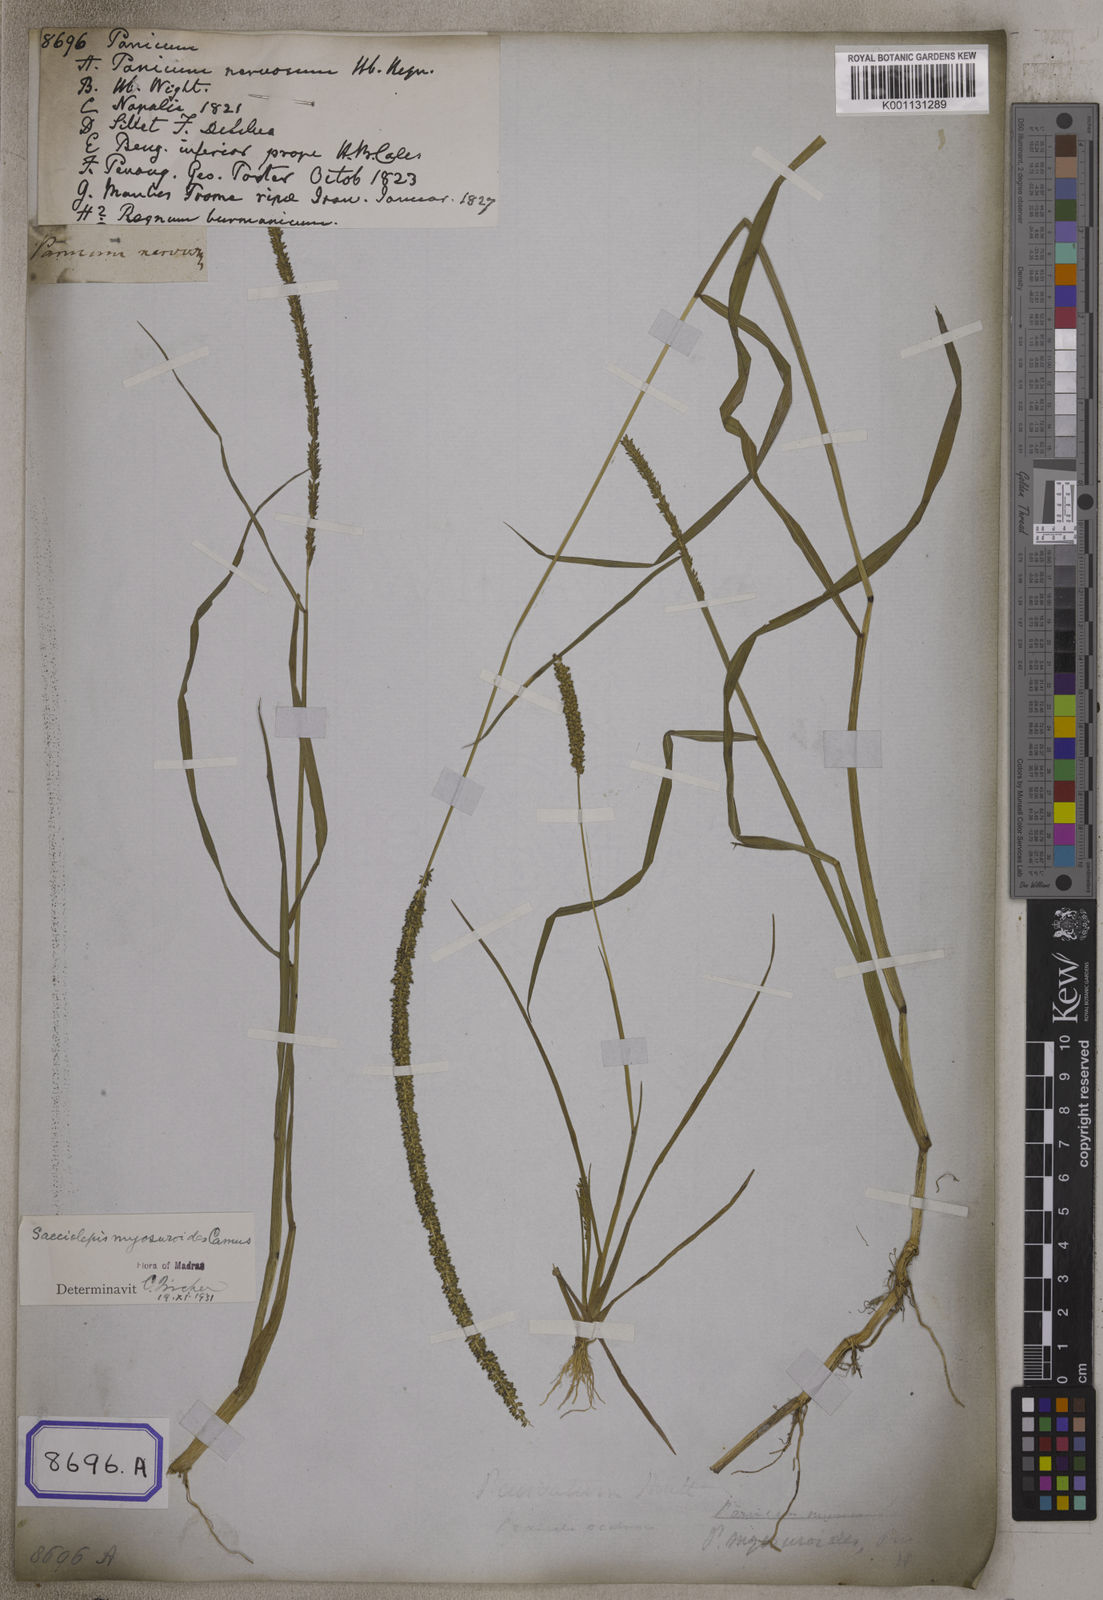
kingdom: Plantae
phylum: Tracheophyta
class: Liliopsida
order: Poales
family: Poaceae
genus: Panicum
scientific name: Panicum
